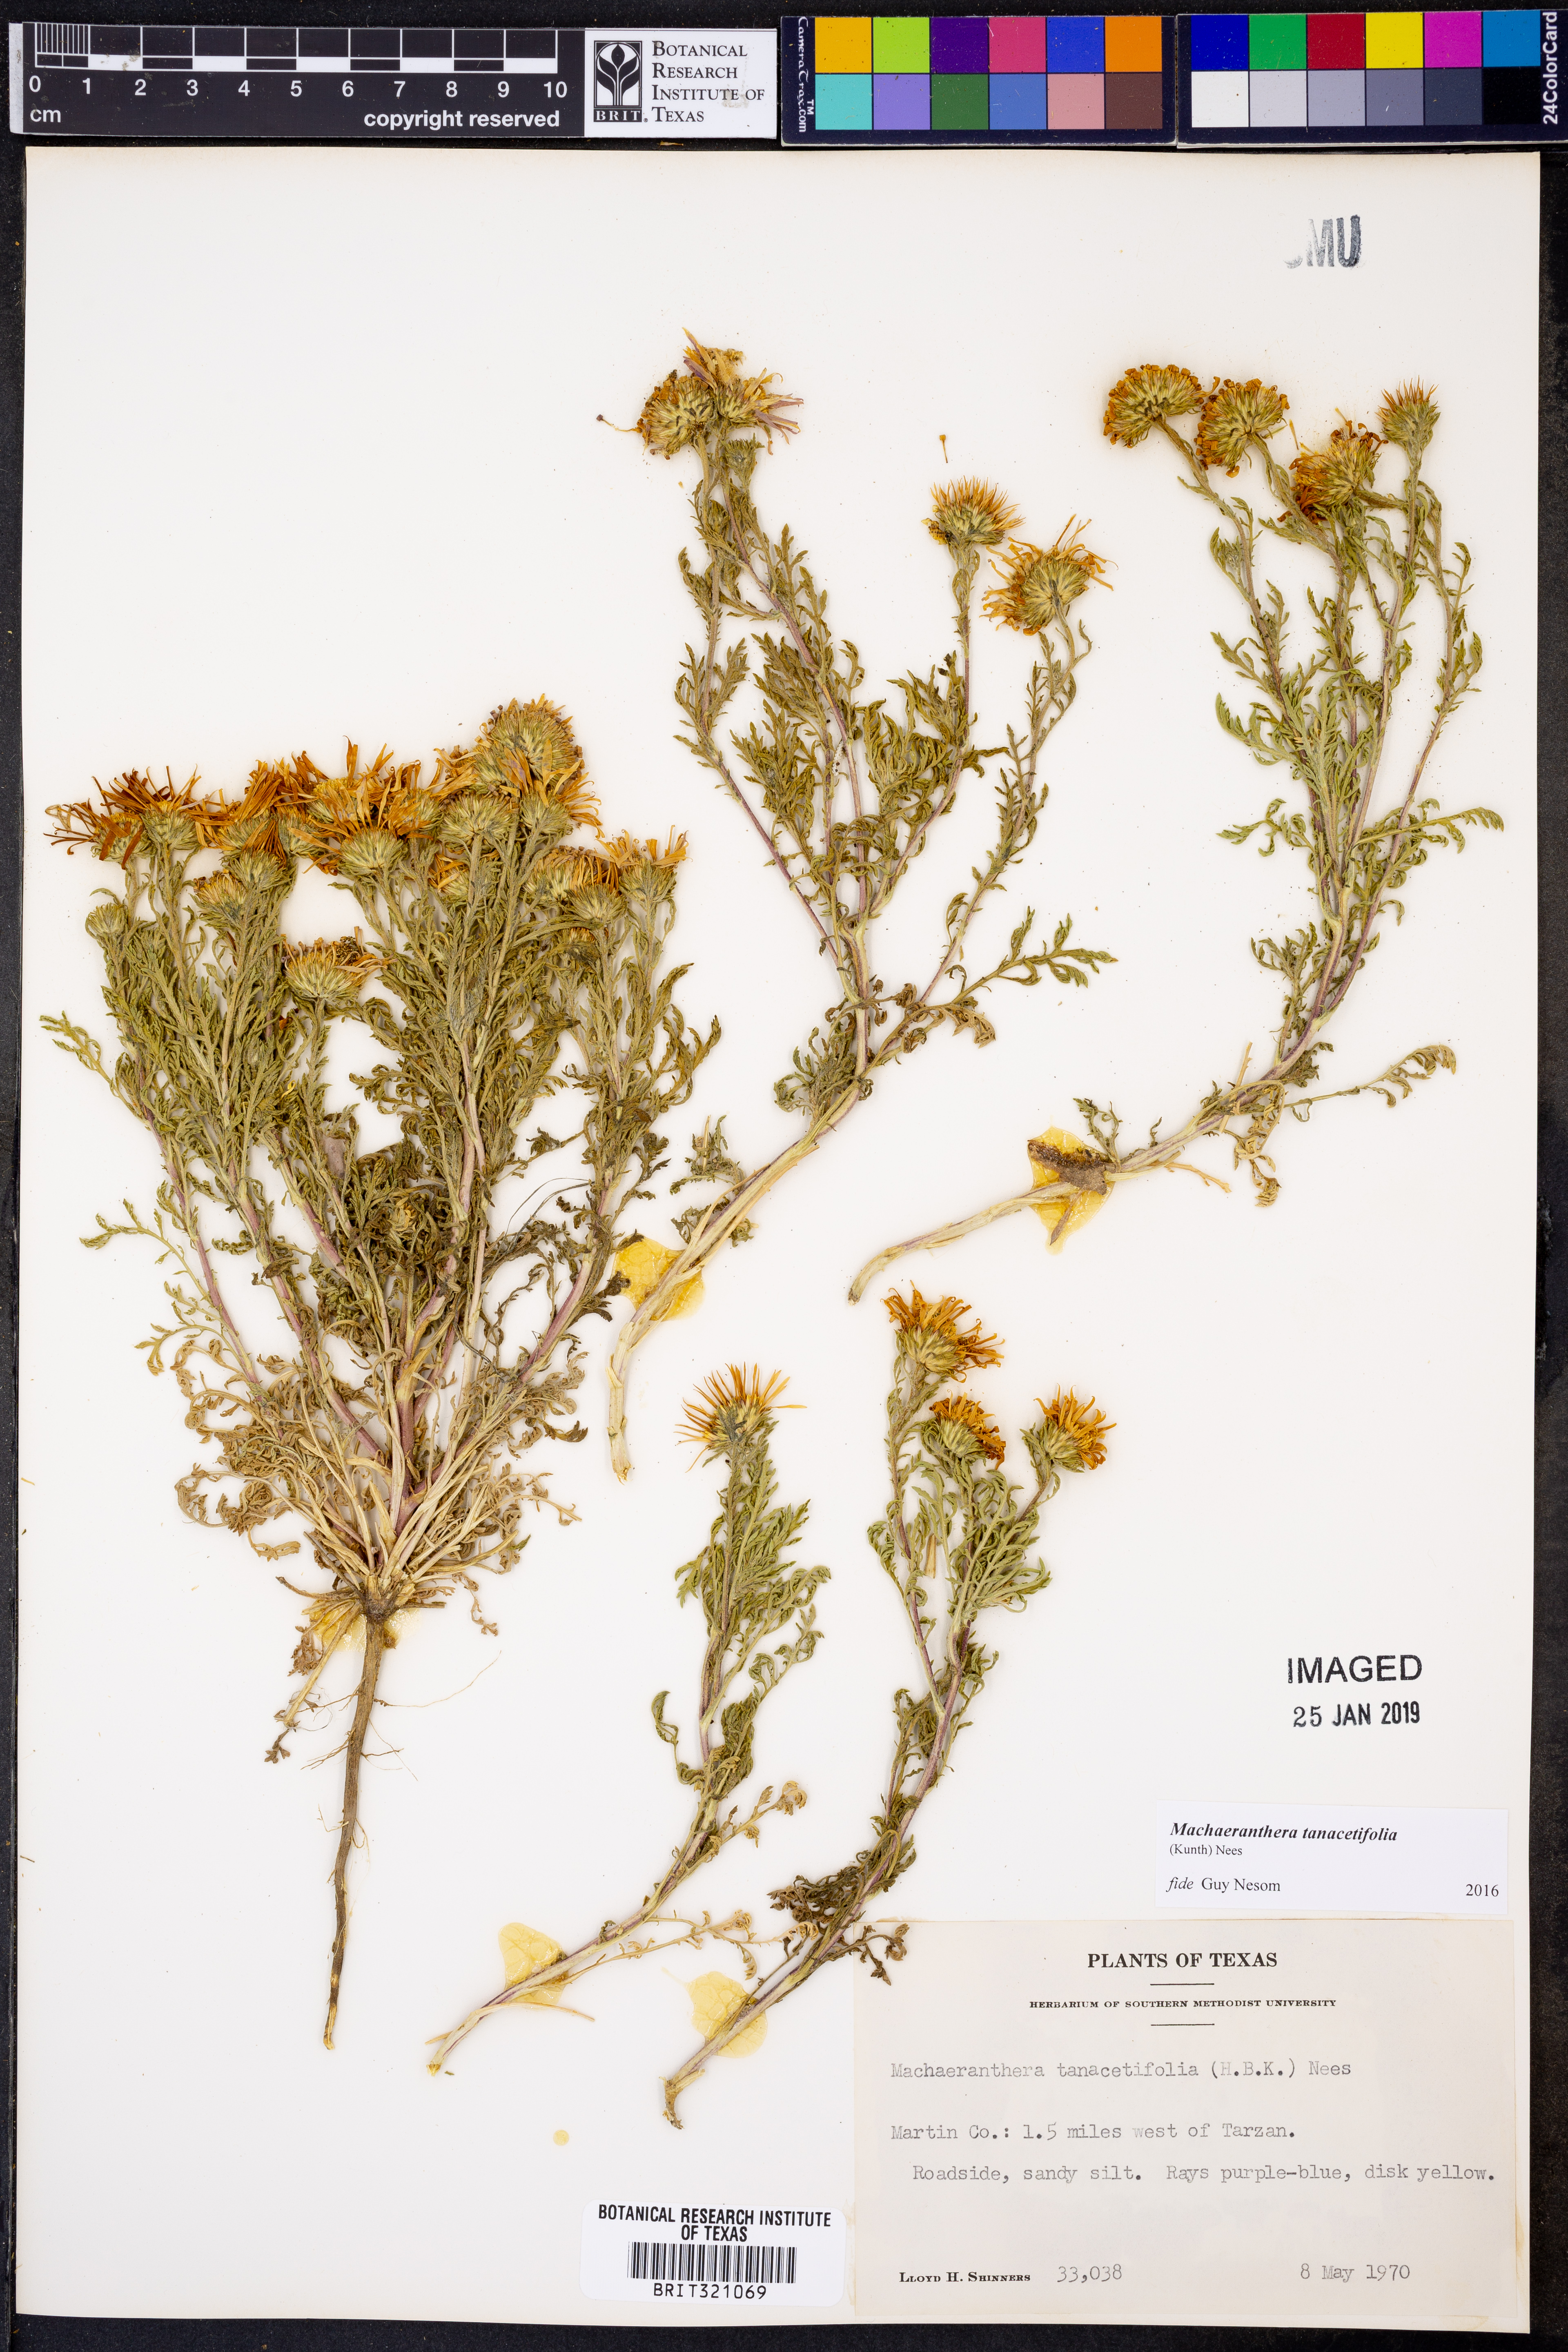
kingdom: Plantae
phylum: Tracheophyta
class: Magnoliopsida
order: Asterales
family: Asteraceae
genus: Machaeranthera
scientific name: Machaeranthera tanacetifolia
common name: Tansy-aster
